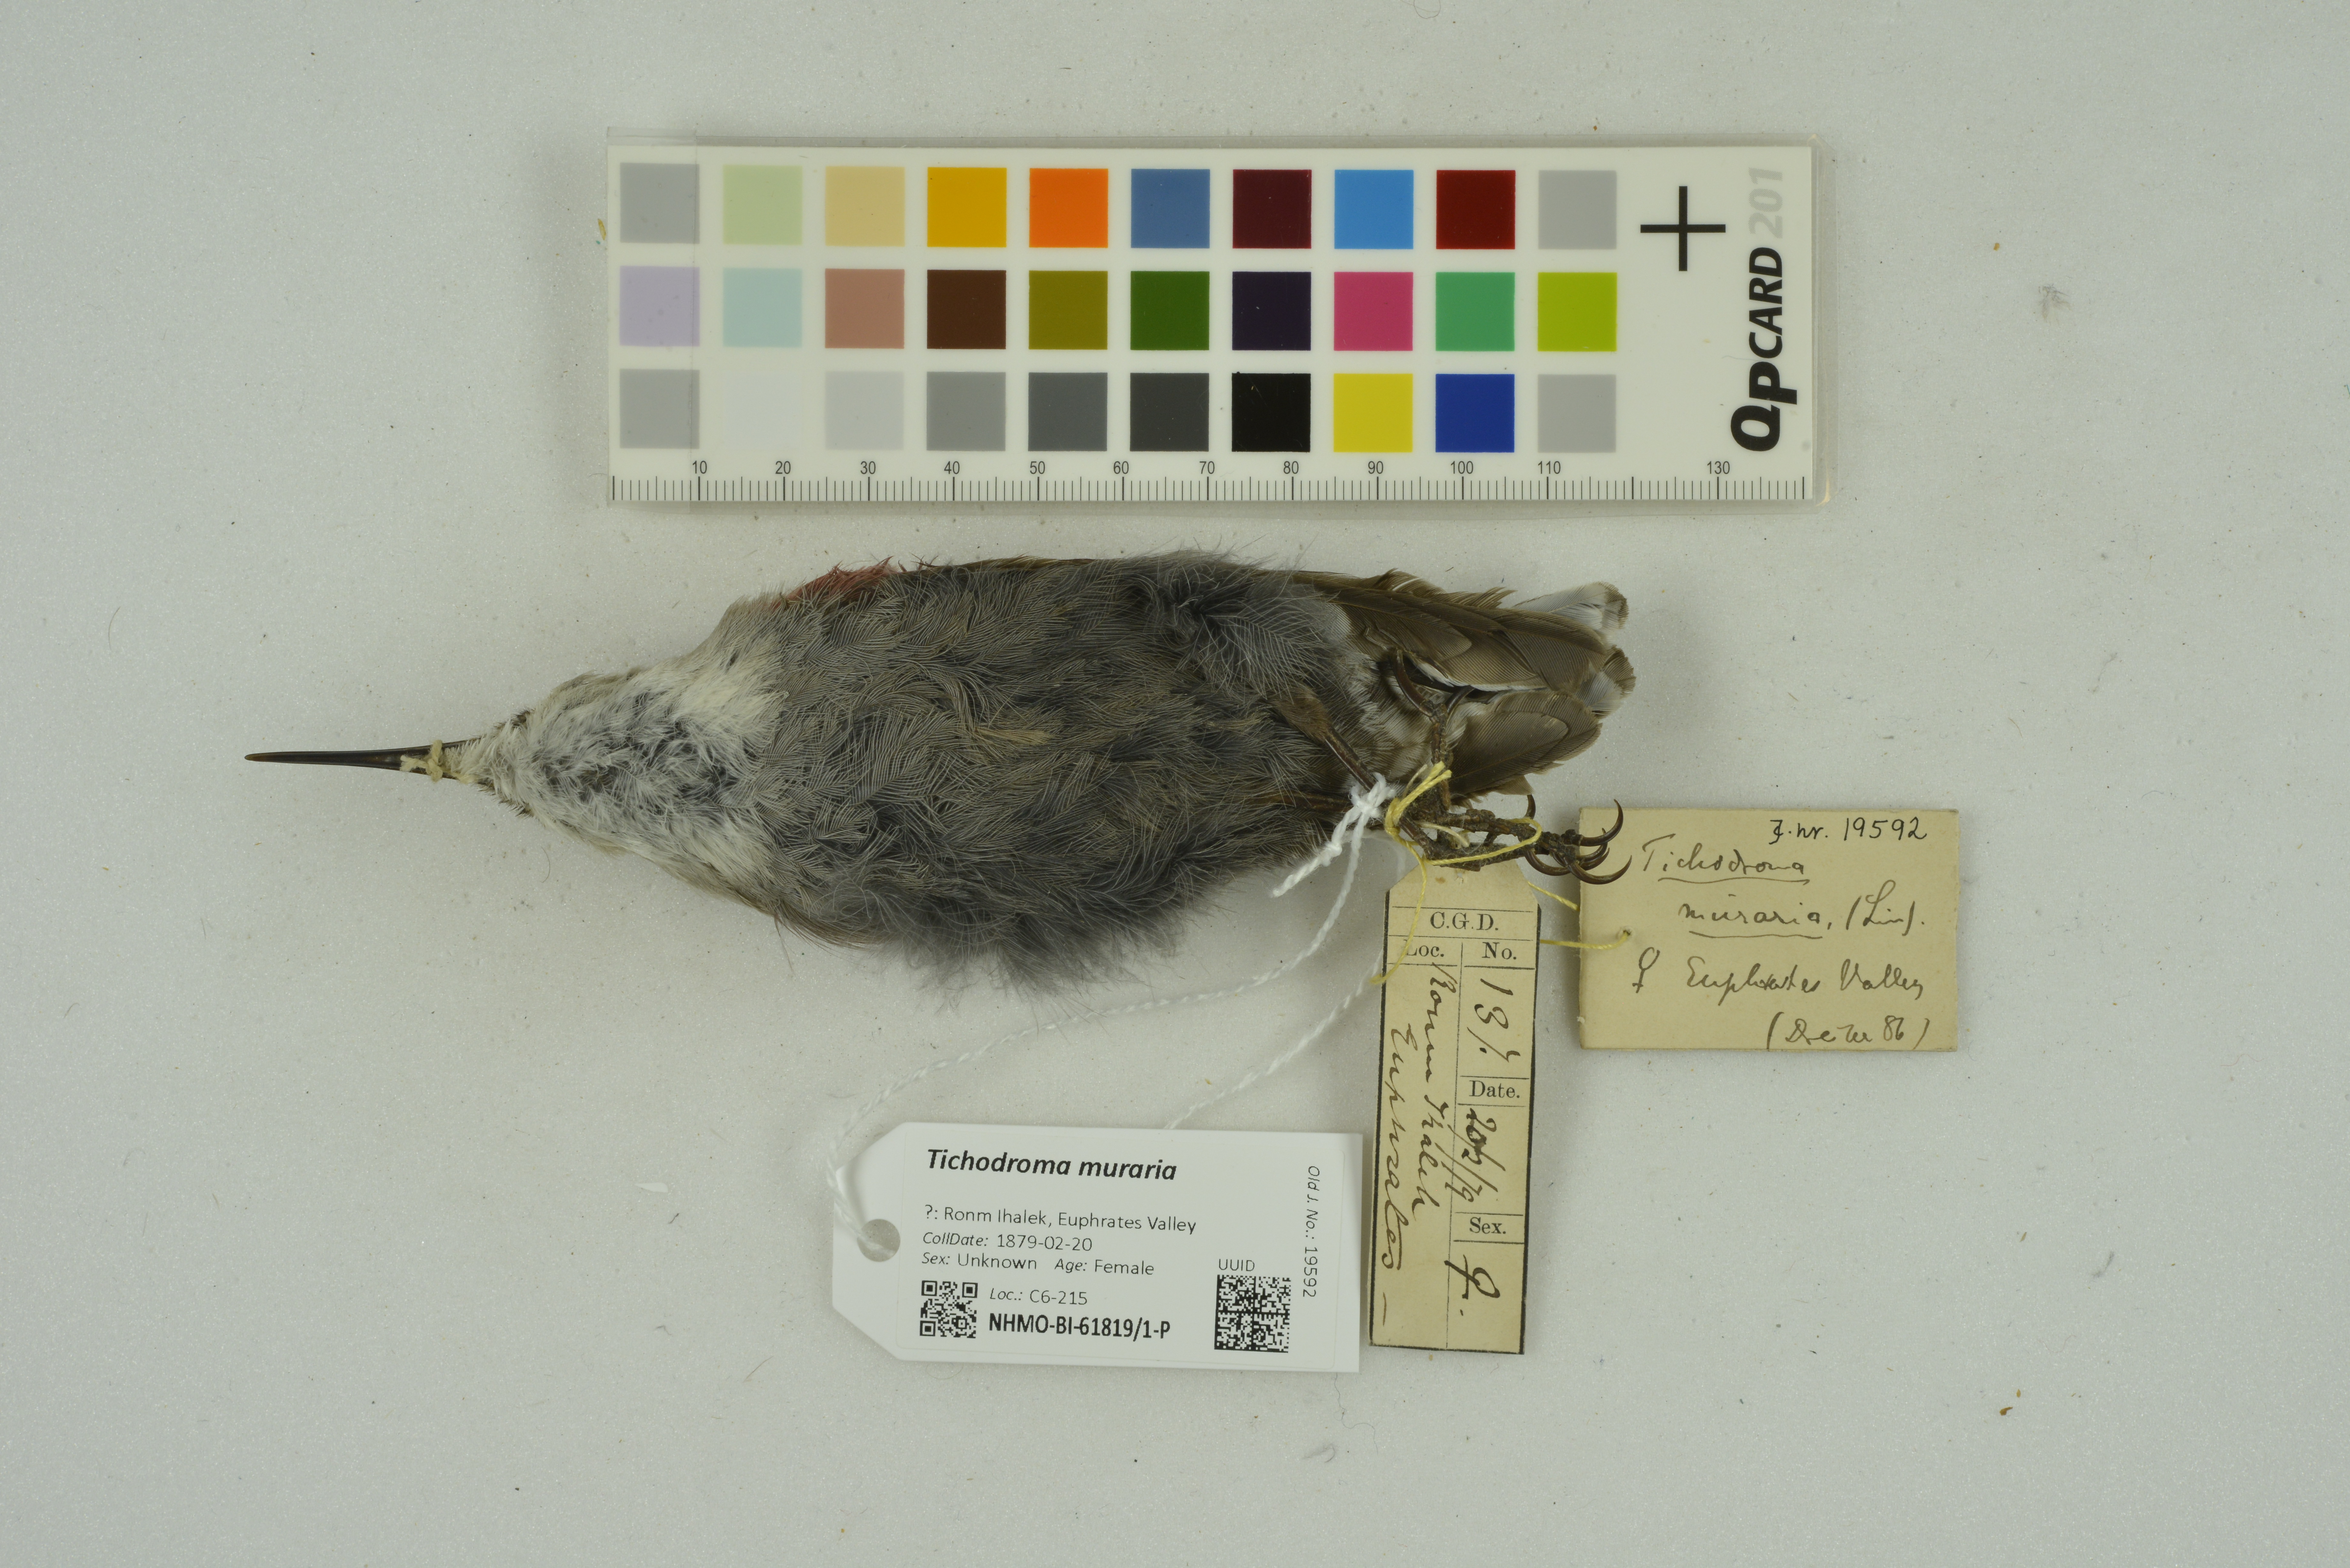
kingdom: Animalia
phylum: Chordata
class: Aves
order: Passeriformes
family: Tichodromidae
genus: Tichodroma
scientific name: Tichodroma muraria
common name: Wallcreeper
